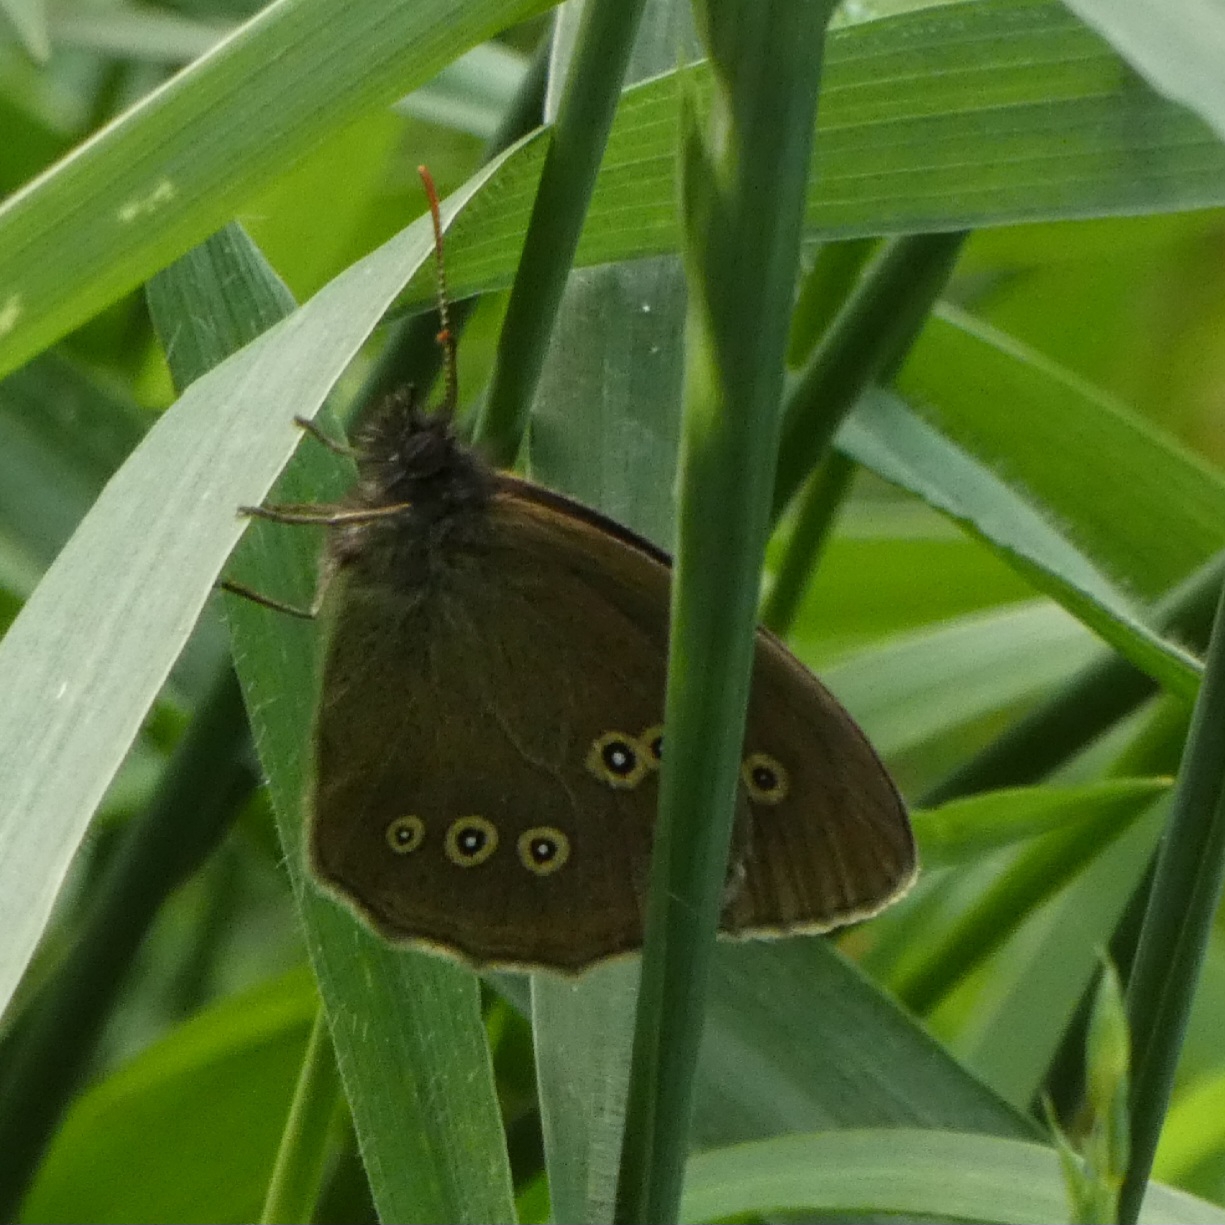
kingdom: Animalia
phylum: Arthropoda
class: Insecta
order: Lepidoptera
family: Nymphalidae
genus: Aphantopus
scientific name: Aphantopus hyperantus
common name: Engrandøje
